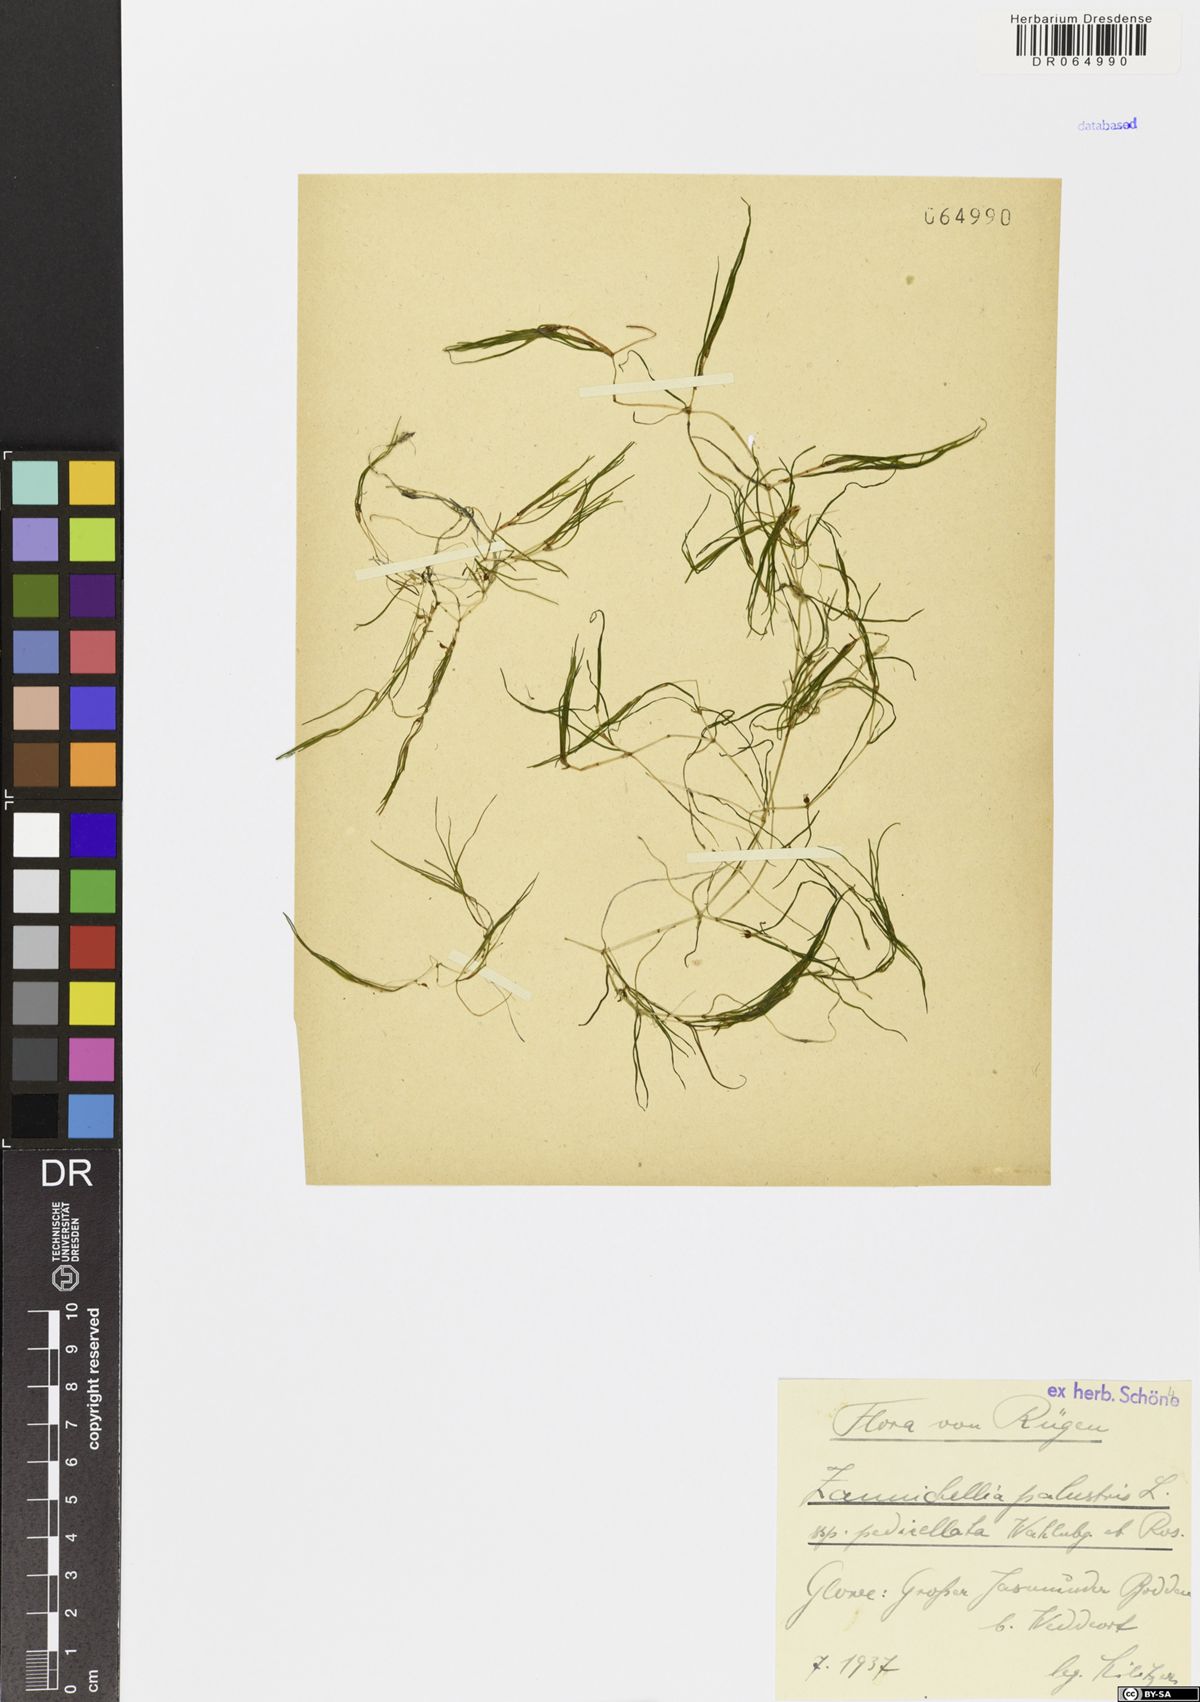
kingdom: Plantae
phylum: Tracheophyta
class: Liliopsida
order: Alismatales
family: Potamogetonaceae
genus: Zannichellia
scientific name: Zannichellia palustris
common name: Horned pondweed
